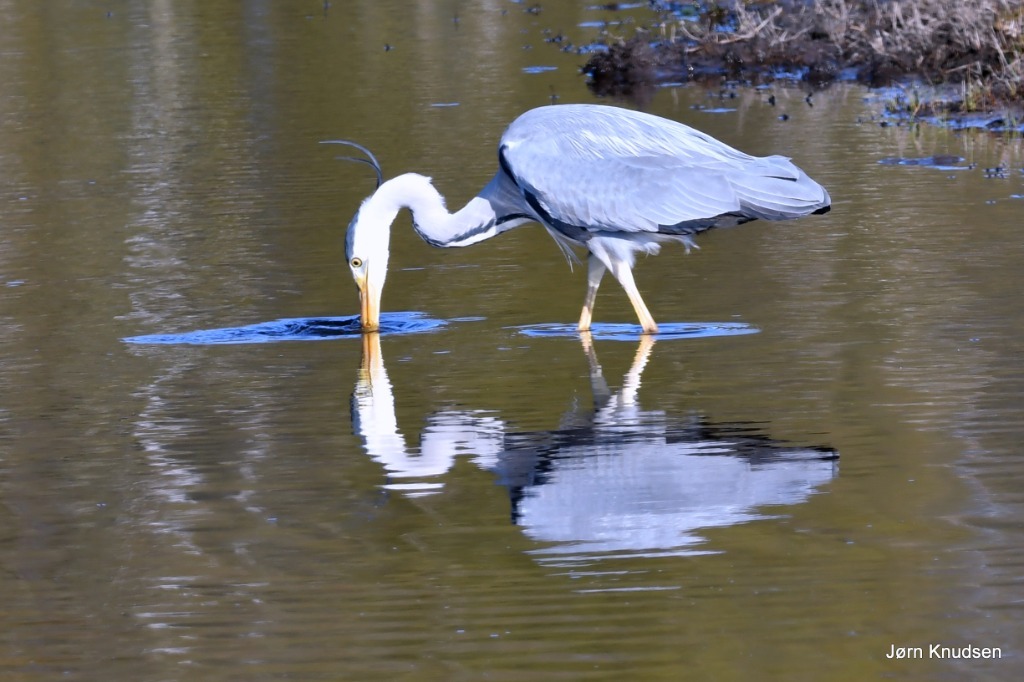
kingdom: Animalia
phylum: Chordata
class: Aves
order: Pelecaniformes
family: Ardeidae
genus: Ardea
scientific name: Ardea cinerea
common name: Fiskehejre
